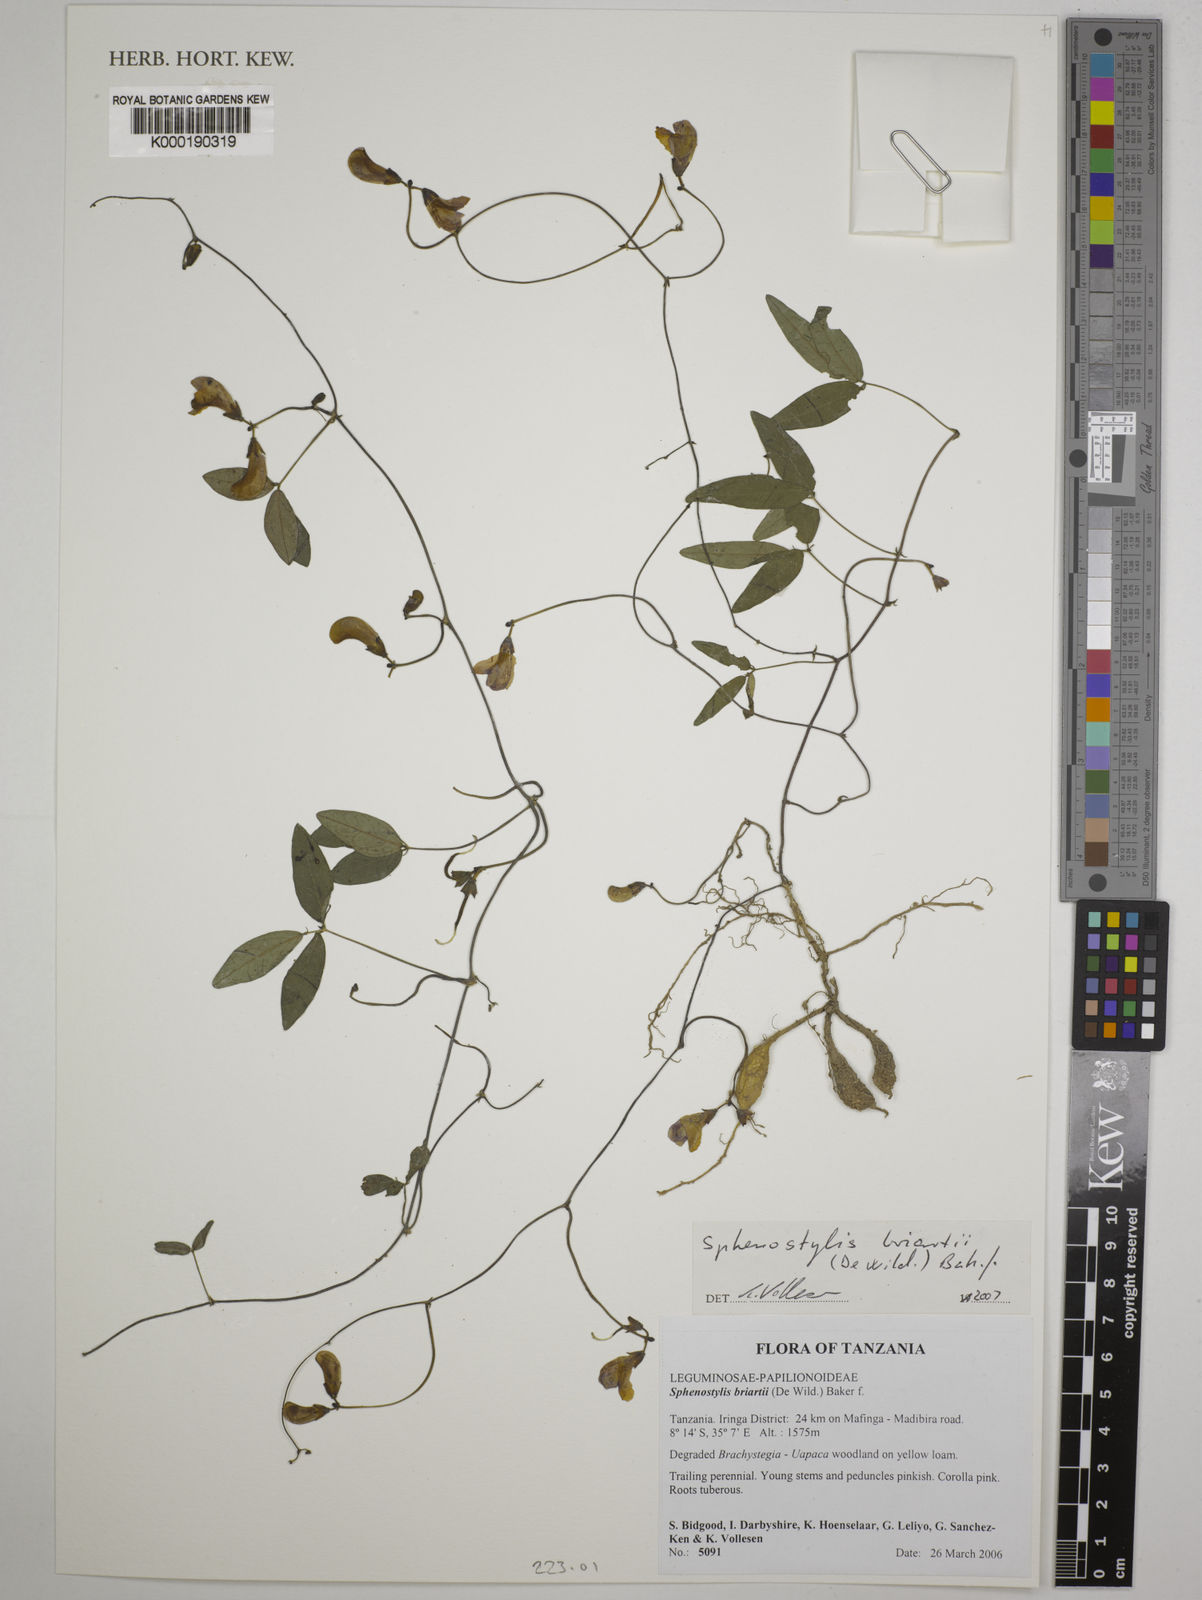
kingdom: Plantae
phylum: Tracheophyta
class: Magnoliopsida
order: Fabales
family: Fabaceae
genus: Sphenostylis
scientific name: Sphenostylis briartii
